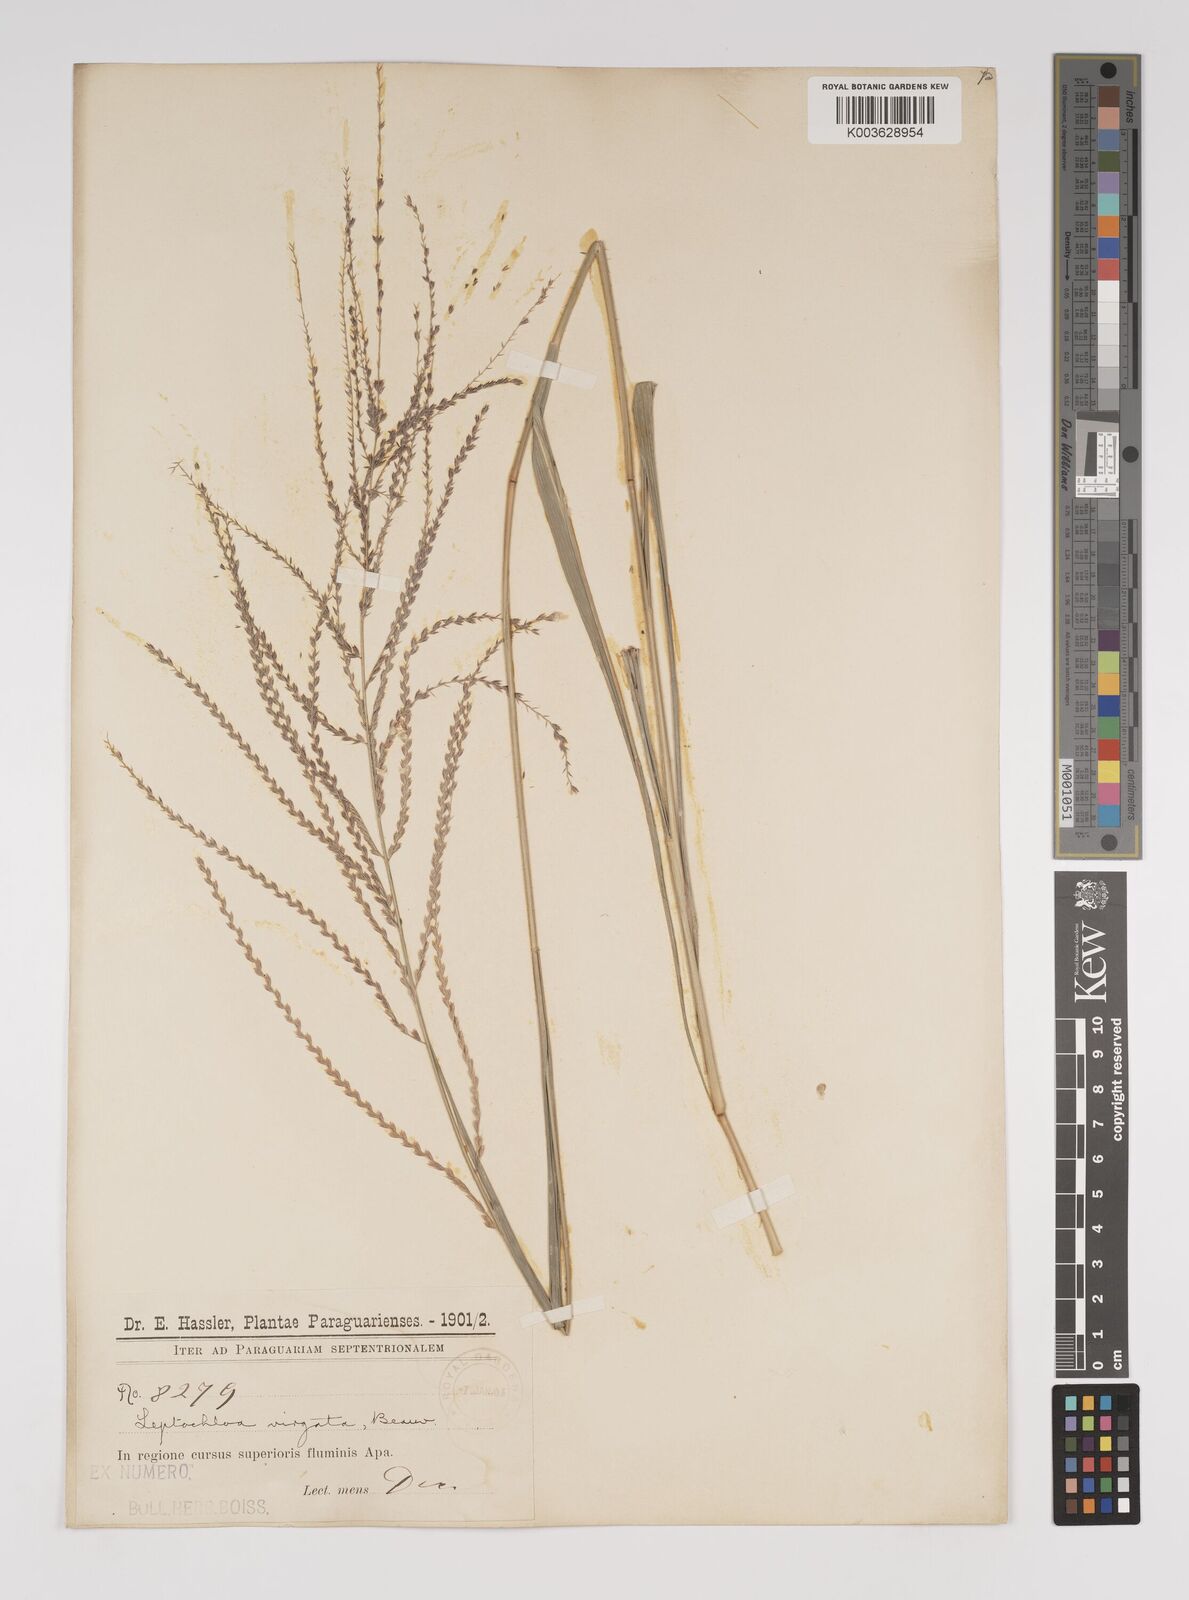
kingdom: Plantae
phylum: Tracheophyta
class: Liliopsida
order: Poales
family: Poaceae
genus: Leptochloa
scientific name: Leptochloa virgata
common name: Tropical sprangletop
